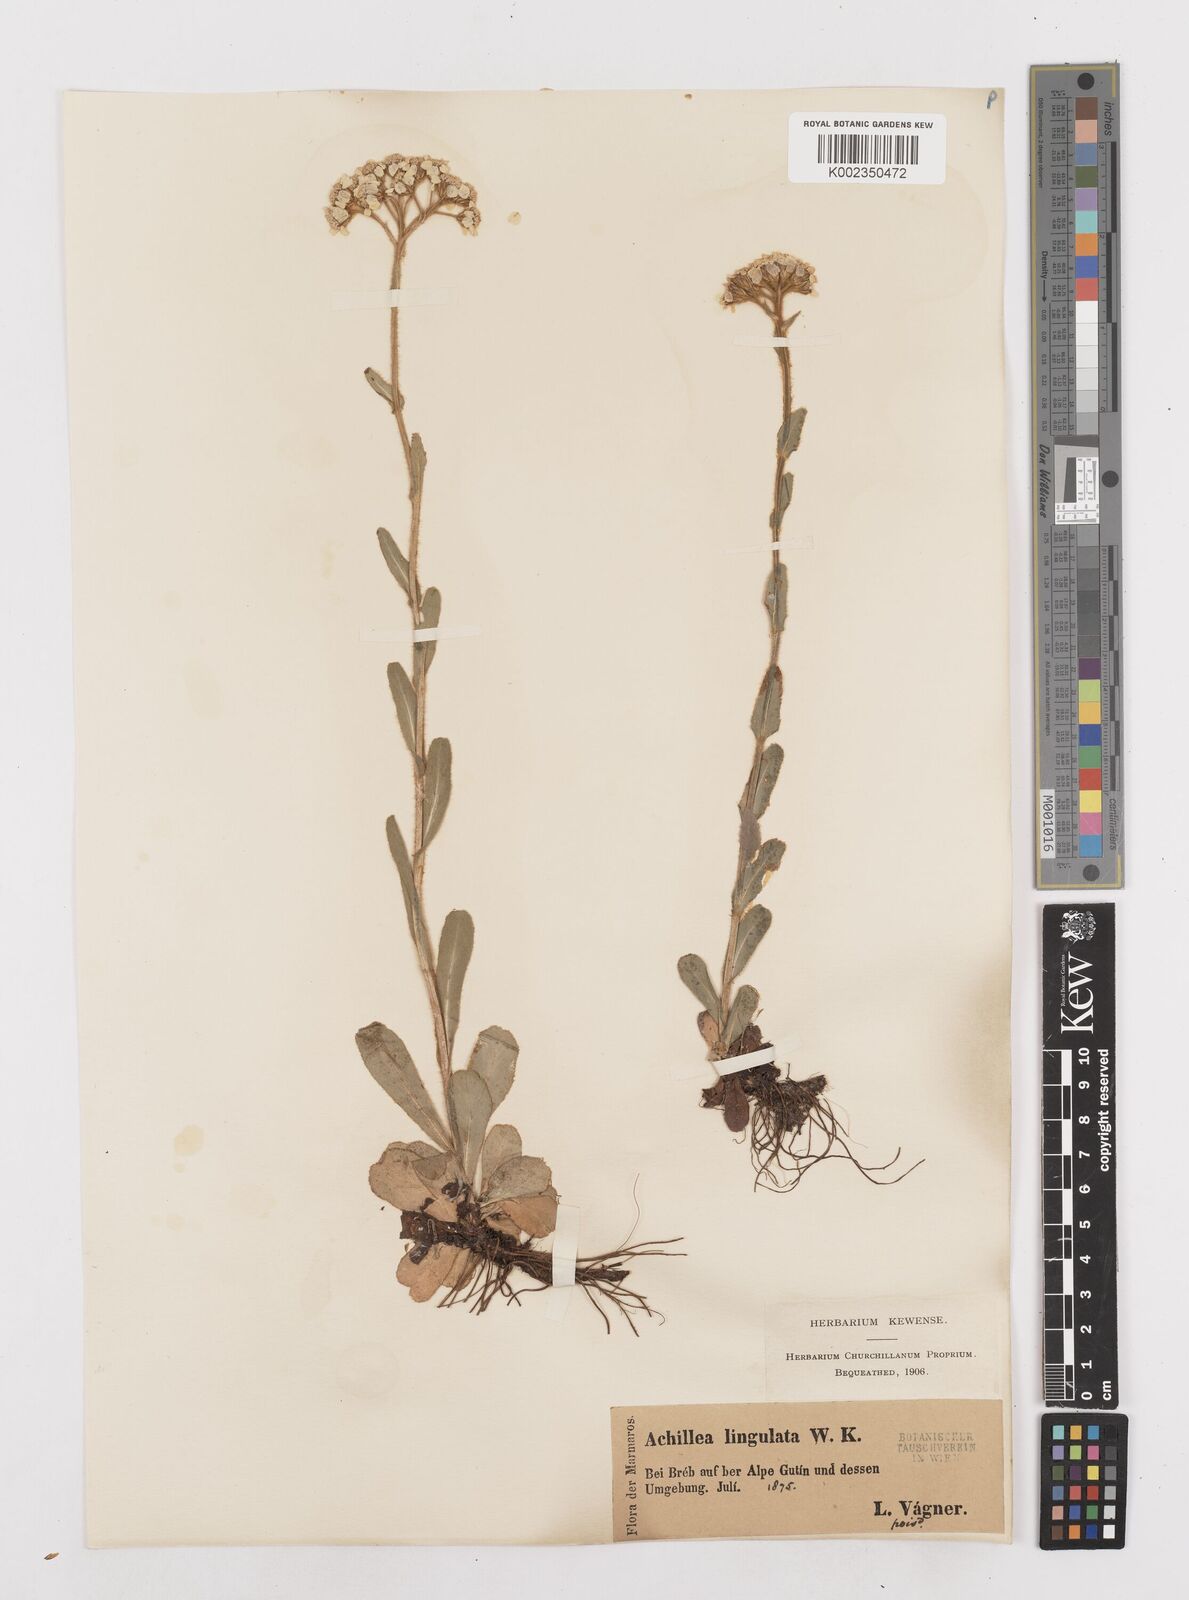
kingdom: Plantae
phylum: Tracheophyta
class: Magnoliopsida
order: Asterales
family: Asteraceae
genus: Achillea
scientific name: Achillea lingulata
